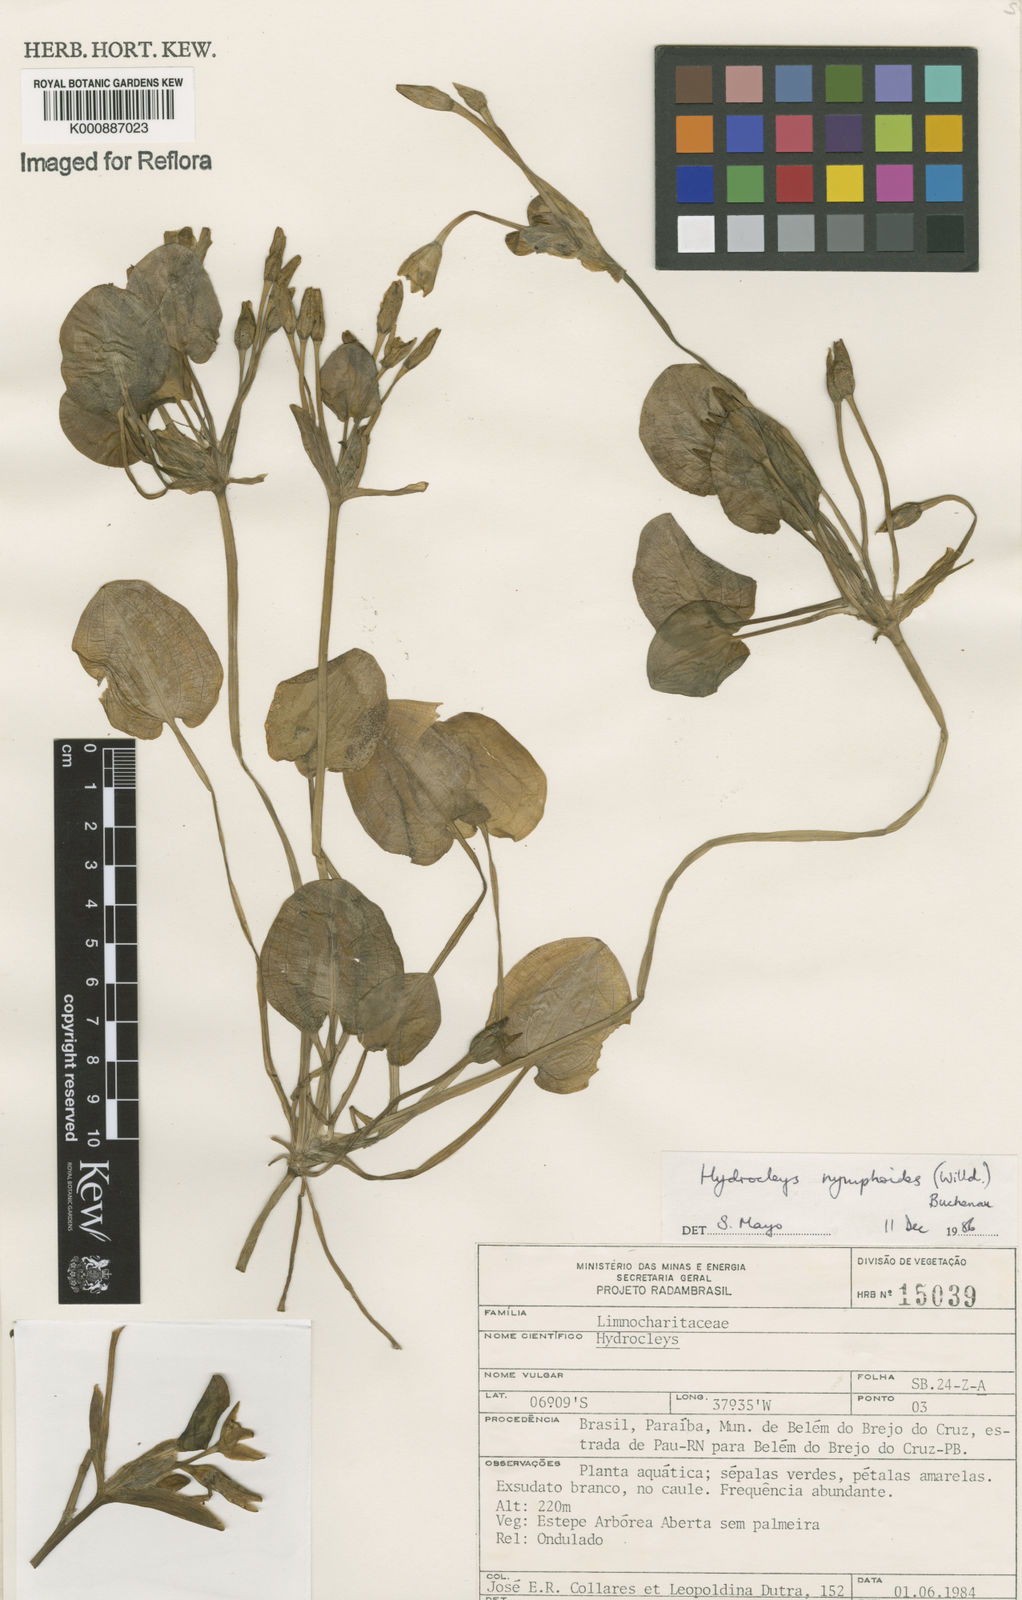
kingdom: Plantae
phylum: Tracheophyta
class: Liliopsida
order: Alismatales
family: Alismataceae
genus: Hydrocleys
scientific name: Hydrocleys nymphoides
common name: Water-poppy
